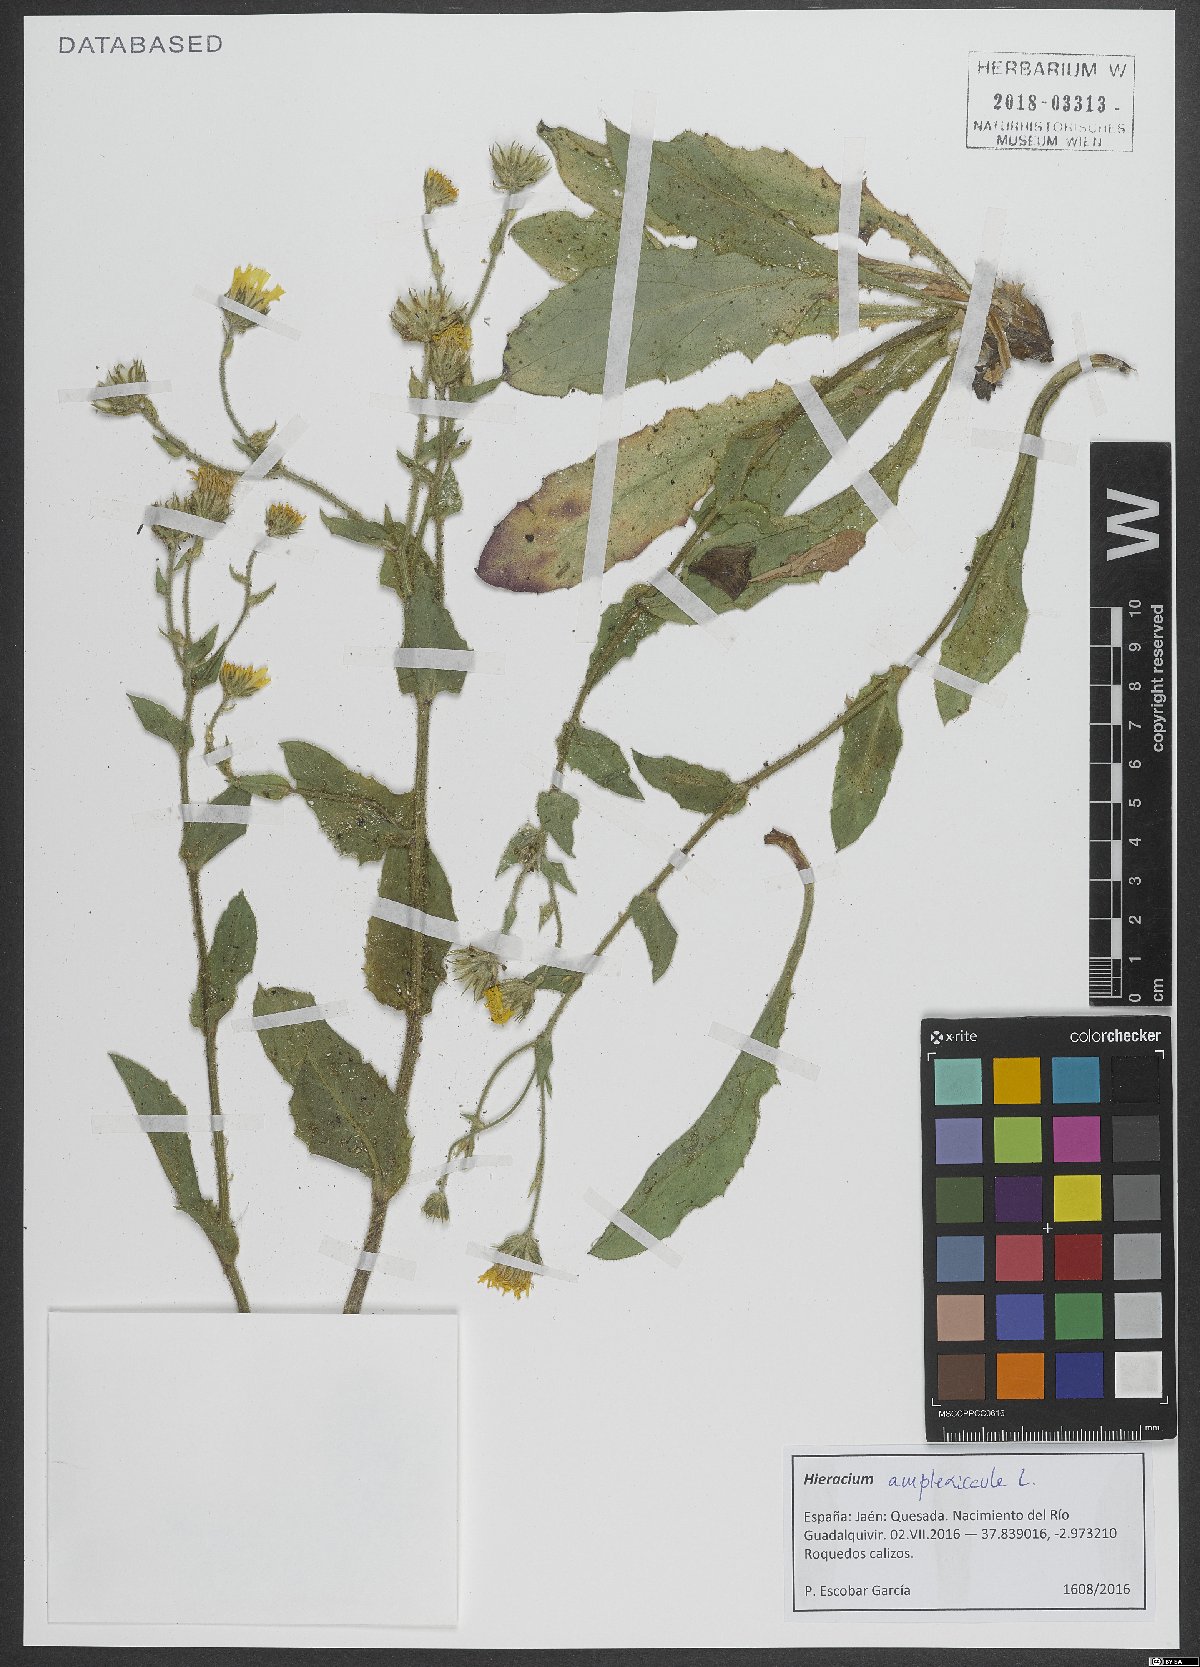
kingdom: Plantae
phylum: Tracheophyta
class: Magnoliopsida
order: Asterales
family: Asteraceae
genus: Hieracium
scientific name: Hieracium amplexicaule
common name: Sticky hawkweed
